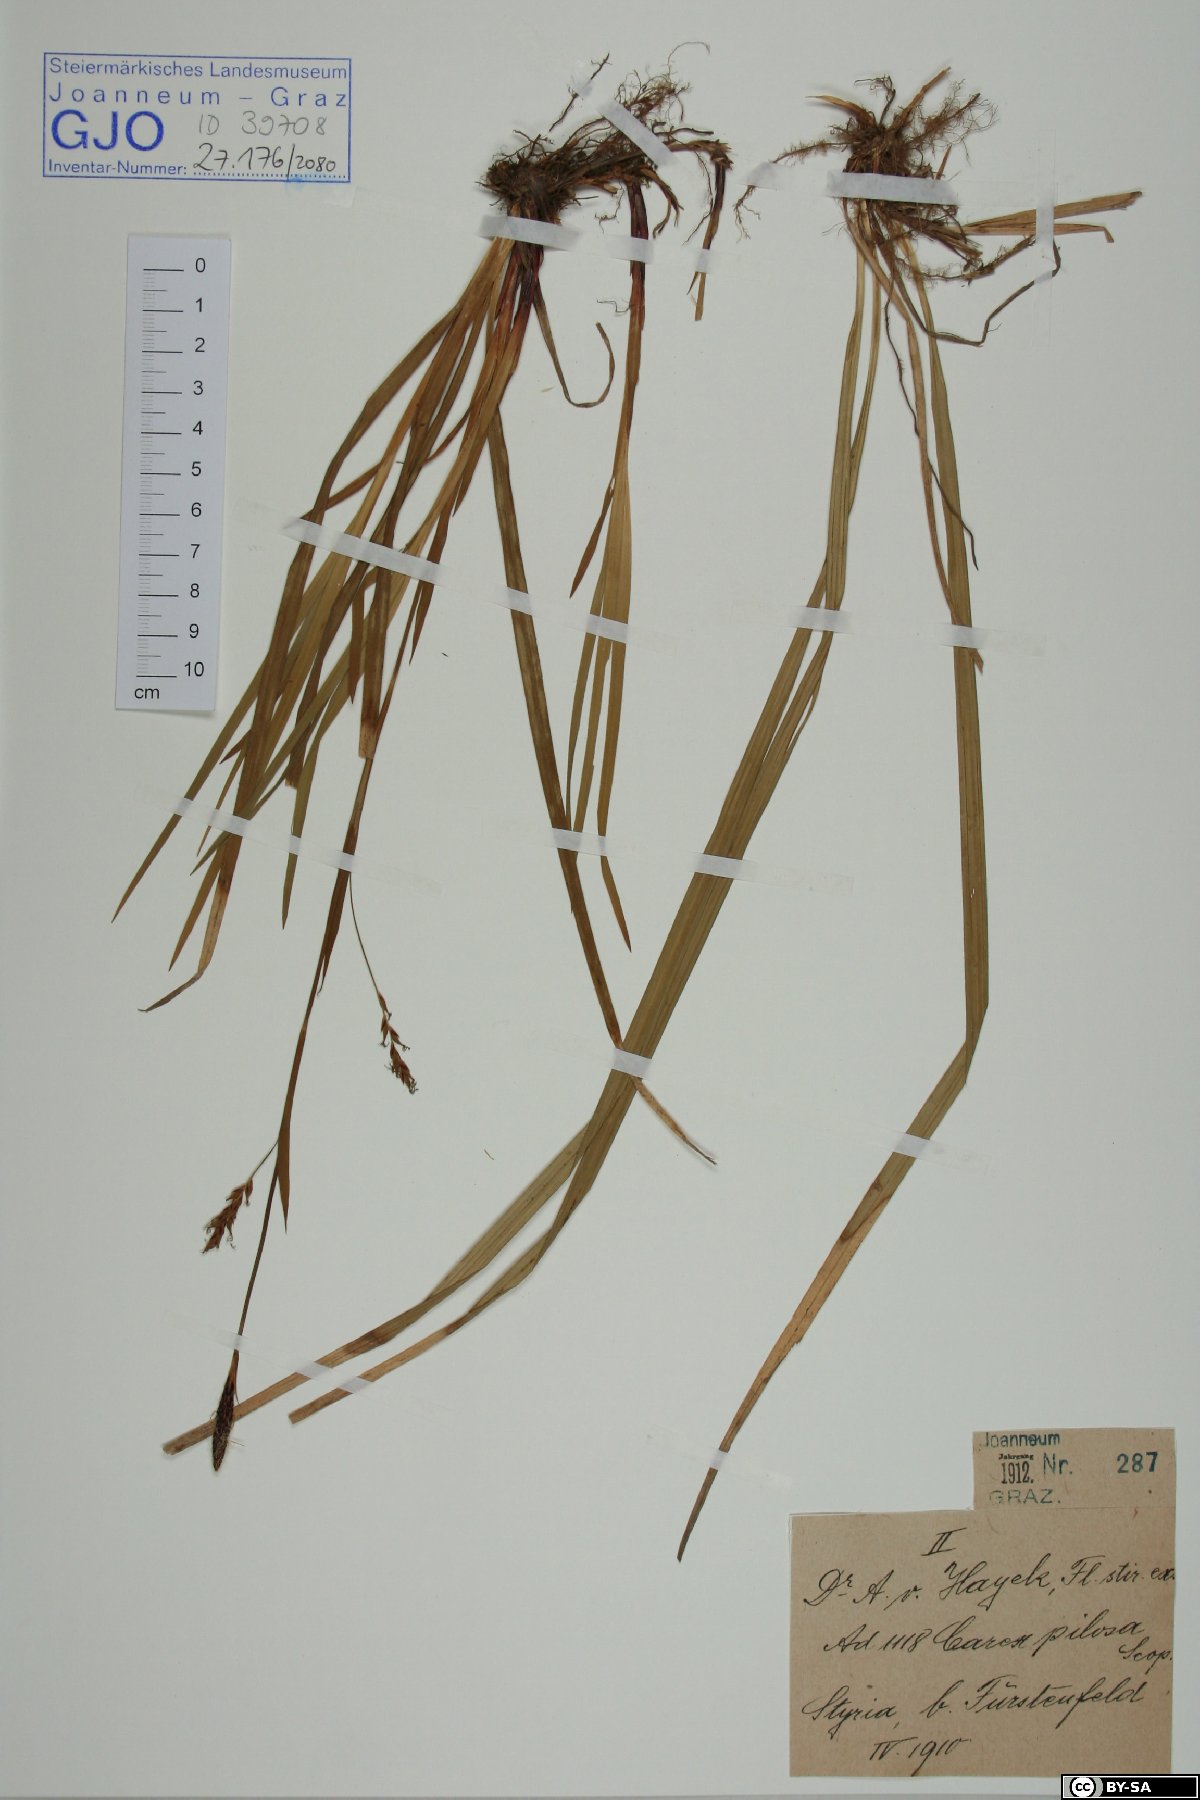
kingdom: Plantae
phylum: Tracheophyta
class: Liliopsida
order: Poales
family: Cyperaceae
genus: Carex
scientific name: Carex pilosa
